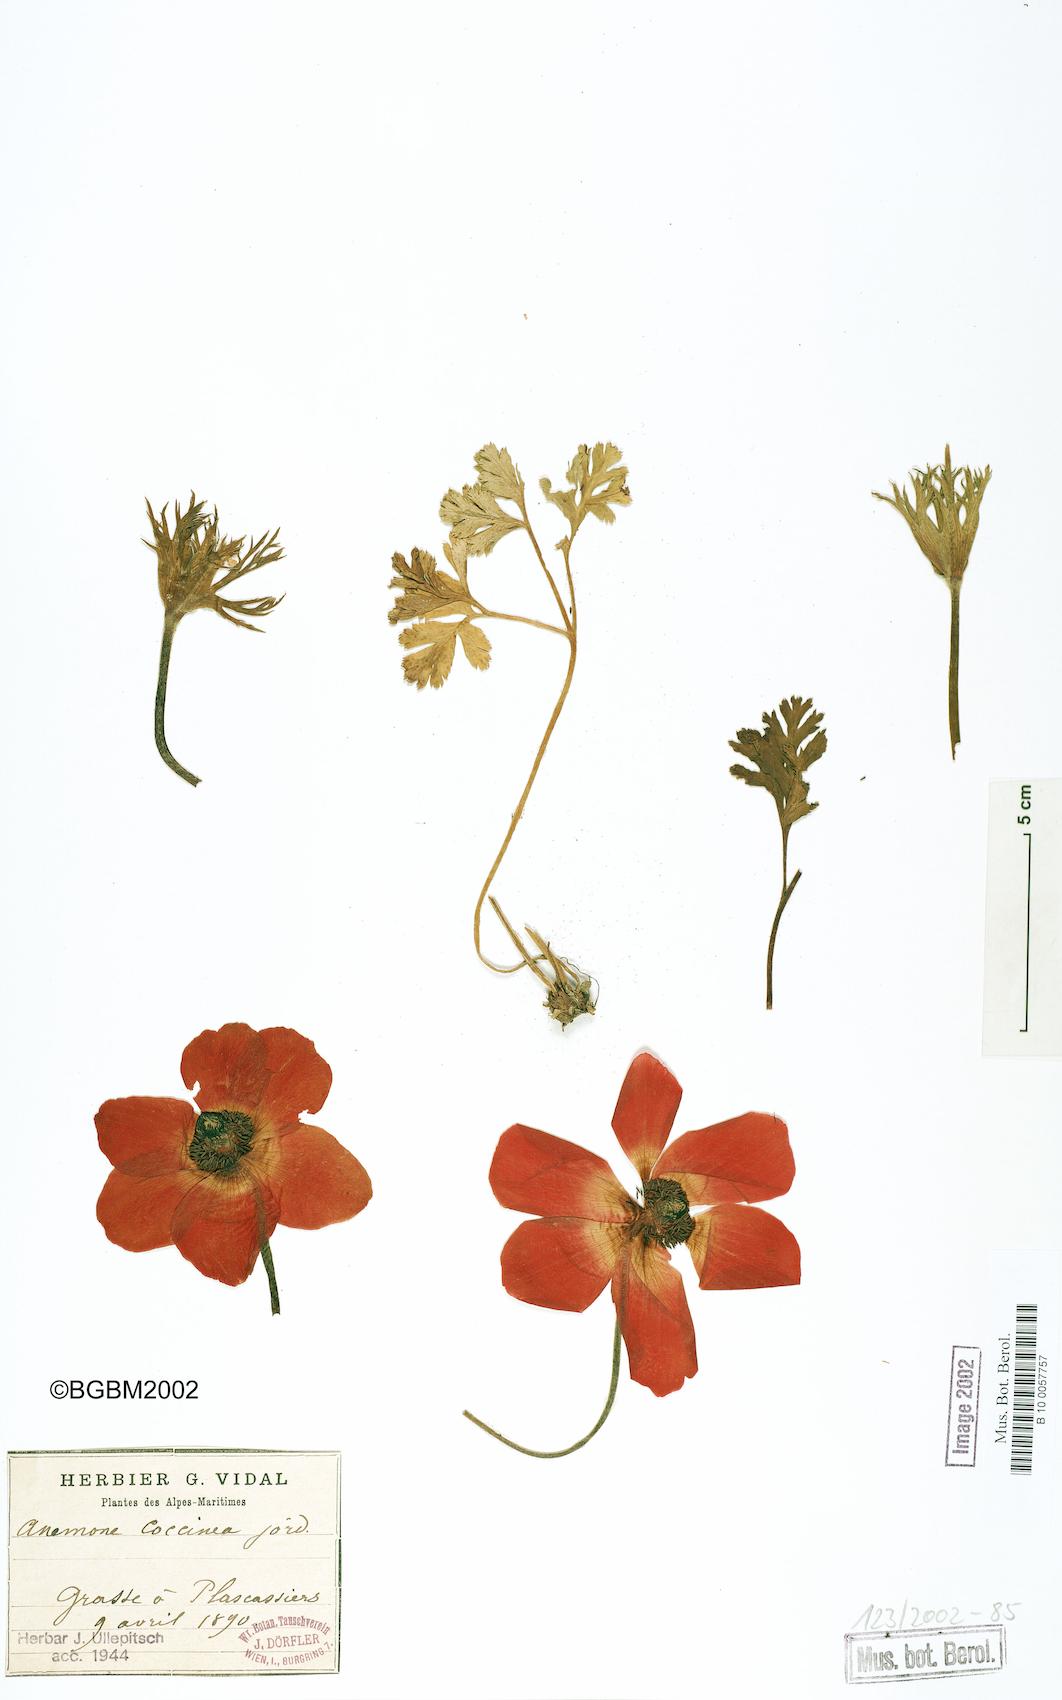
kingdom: Plantae
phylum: Tracheophyta
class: Magnoliopsida
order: Ranunculales
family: Ranunculaceae
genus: Anemone
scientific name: Anemone coronaria
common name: Poppy anemone
